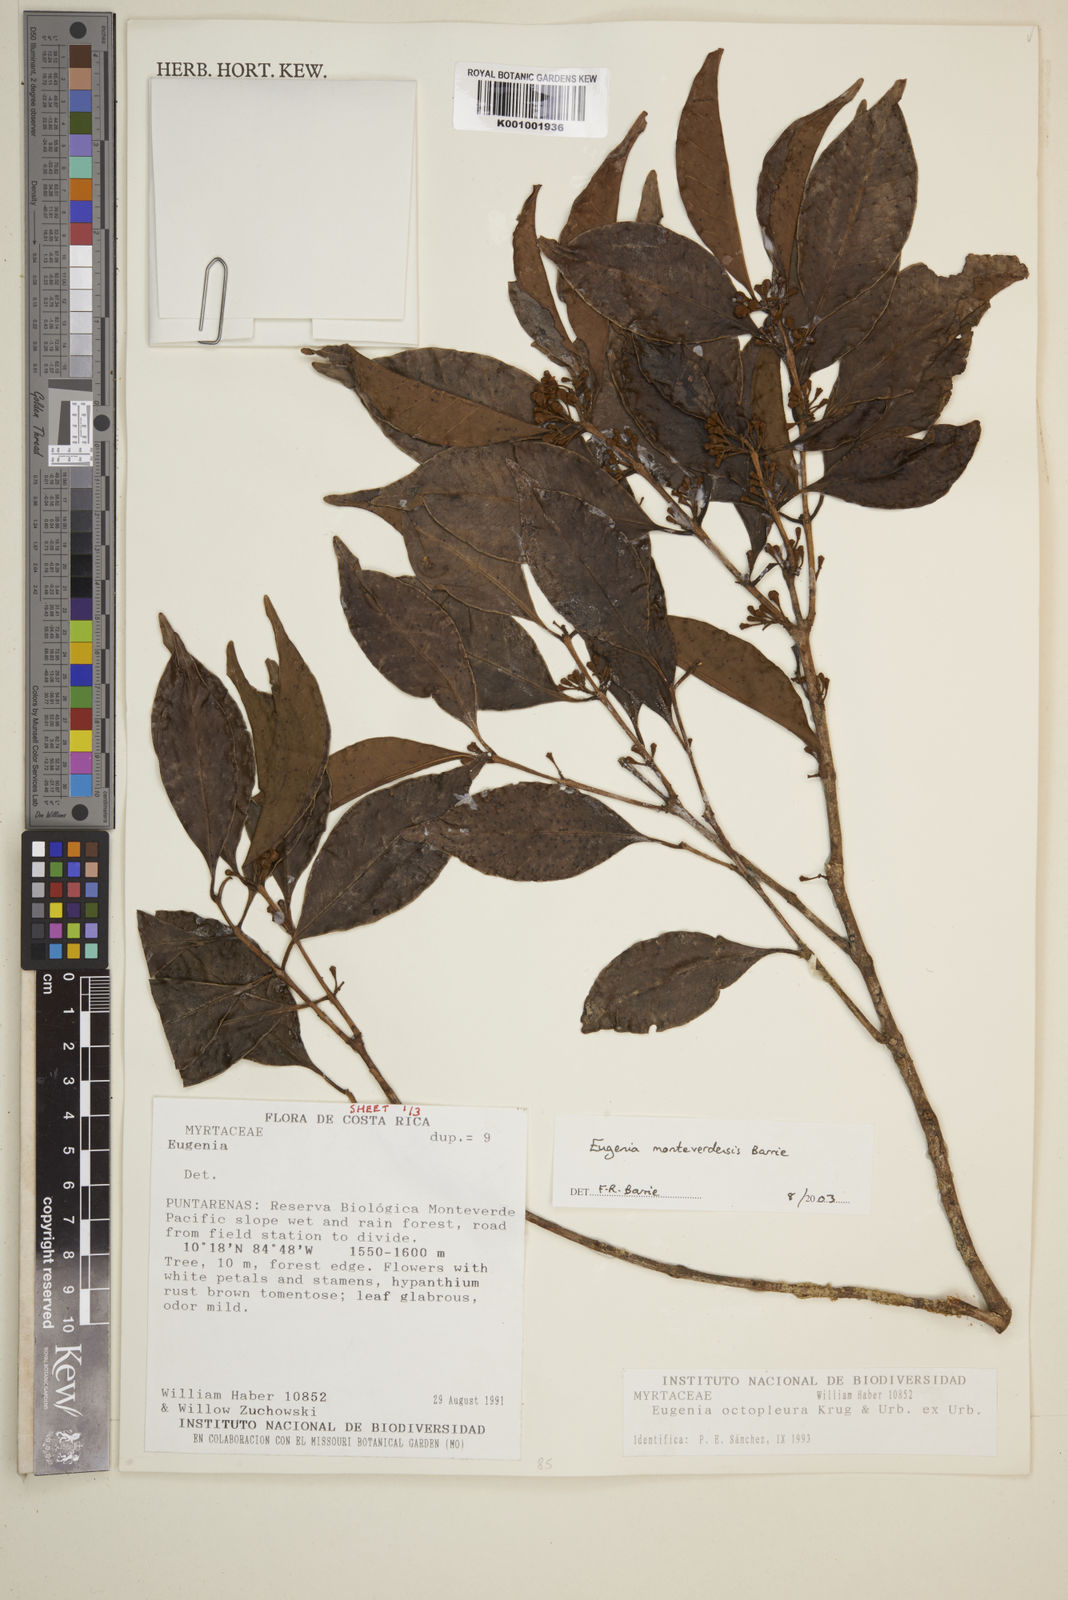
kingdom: Plantae
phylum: Tracheophyta
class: Magnoliopsida
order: Myrtales
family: Myrtaceae
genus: Eugenia
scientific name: Eugenia monteverdensis
